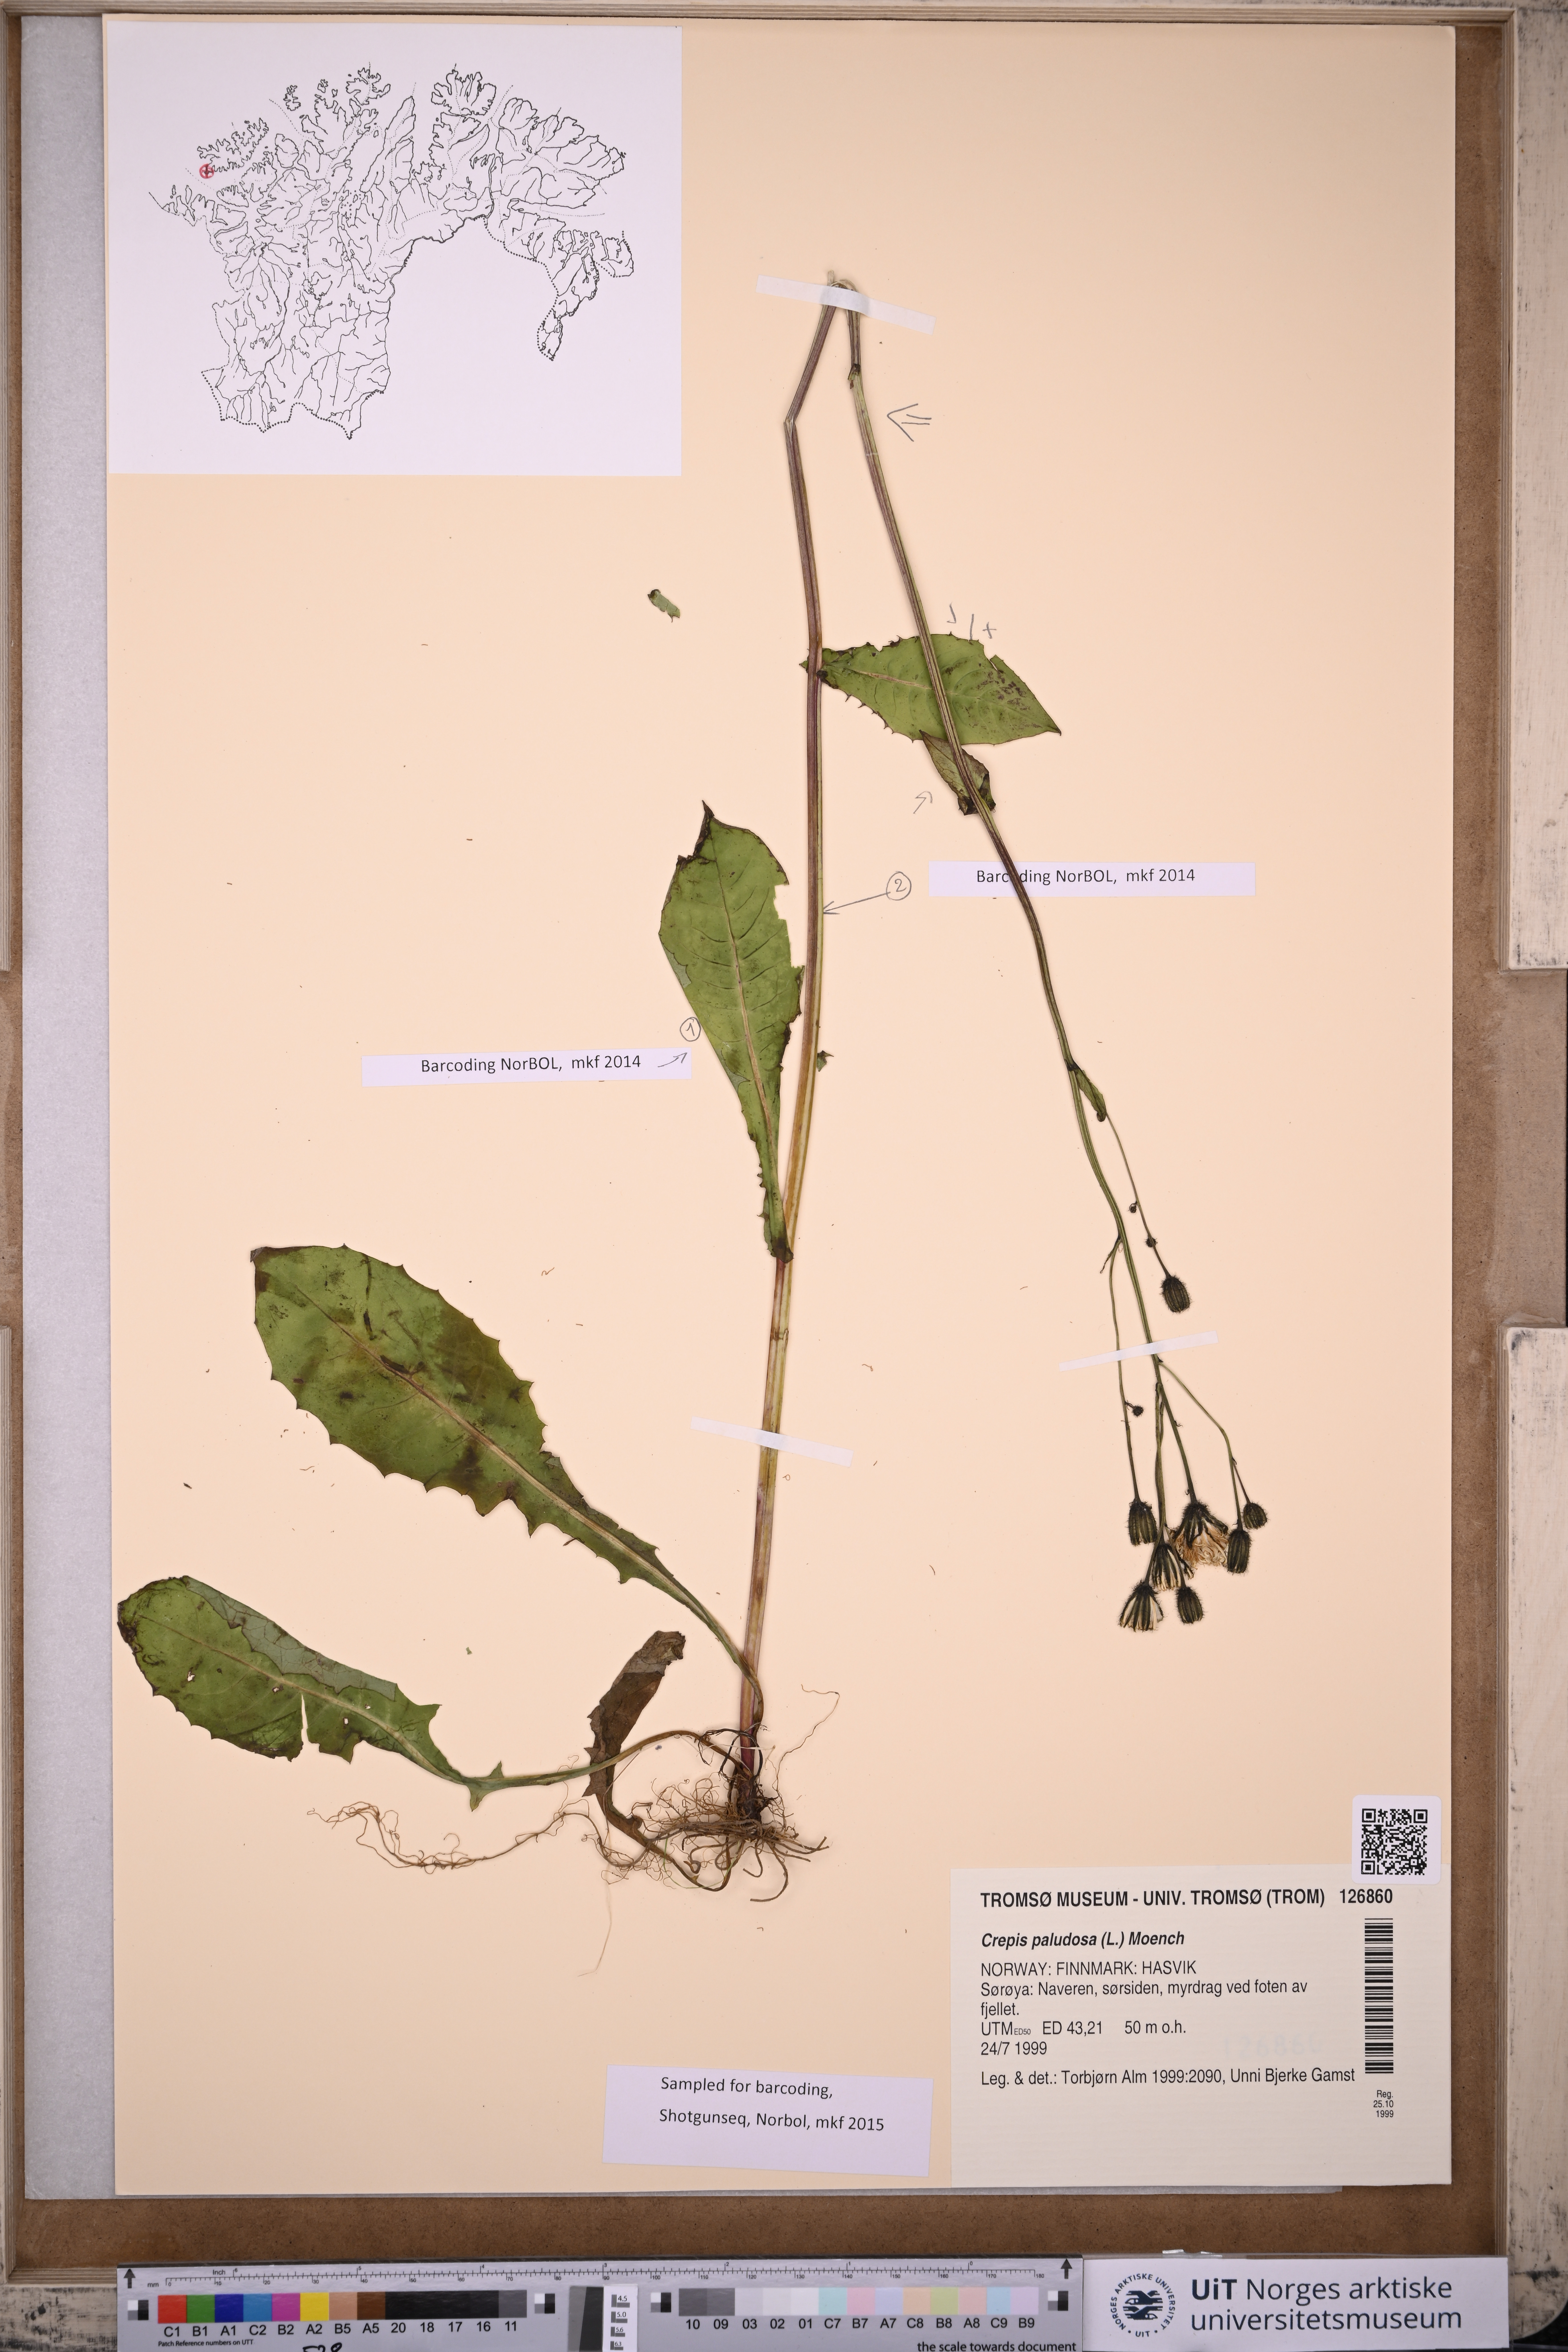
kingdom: Plantae
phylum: Tracheophyta
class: Magnoliopsida
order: Asterales
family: Asteraceae
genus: Crepis
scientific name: Crepis paludosa
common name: Marsh hawk's-beard
